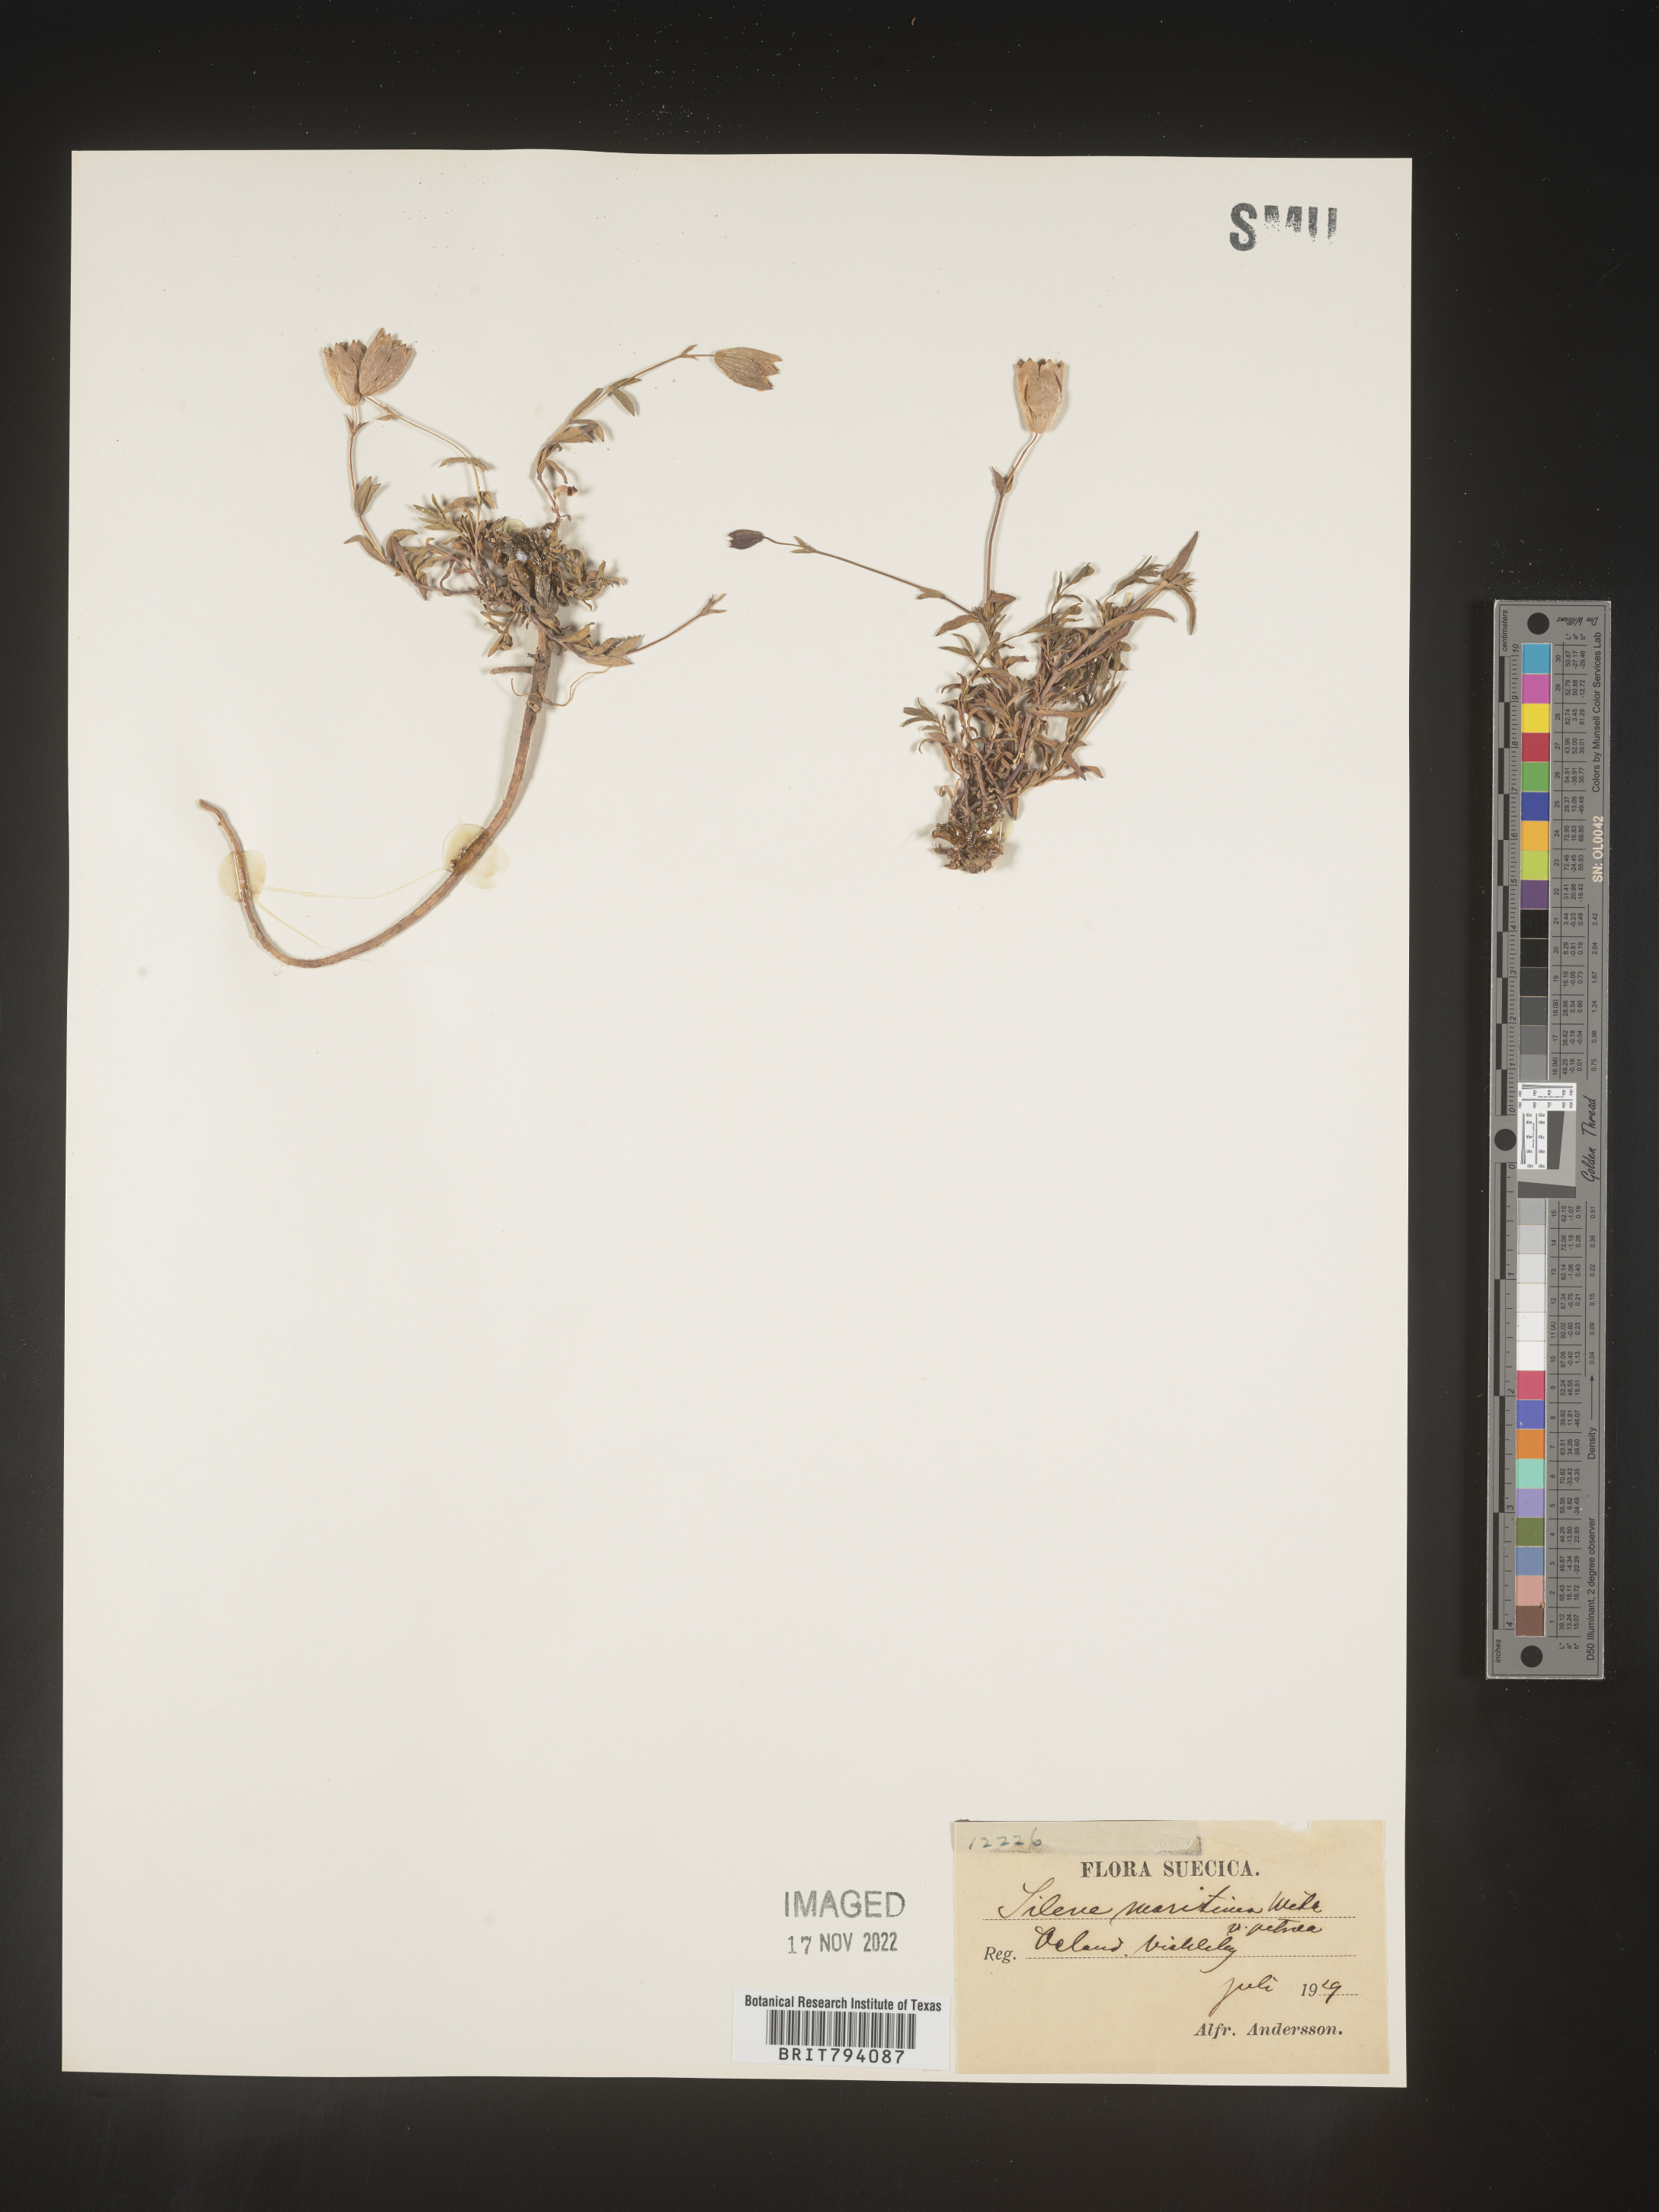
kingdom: Plantae
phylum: Tracheophyta
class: Magnoliopsida
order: Caryophyllales
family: Caryophyllaceae
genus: Silene
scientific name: Silene uniflora
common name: Sea campion
